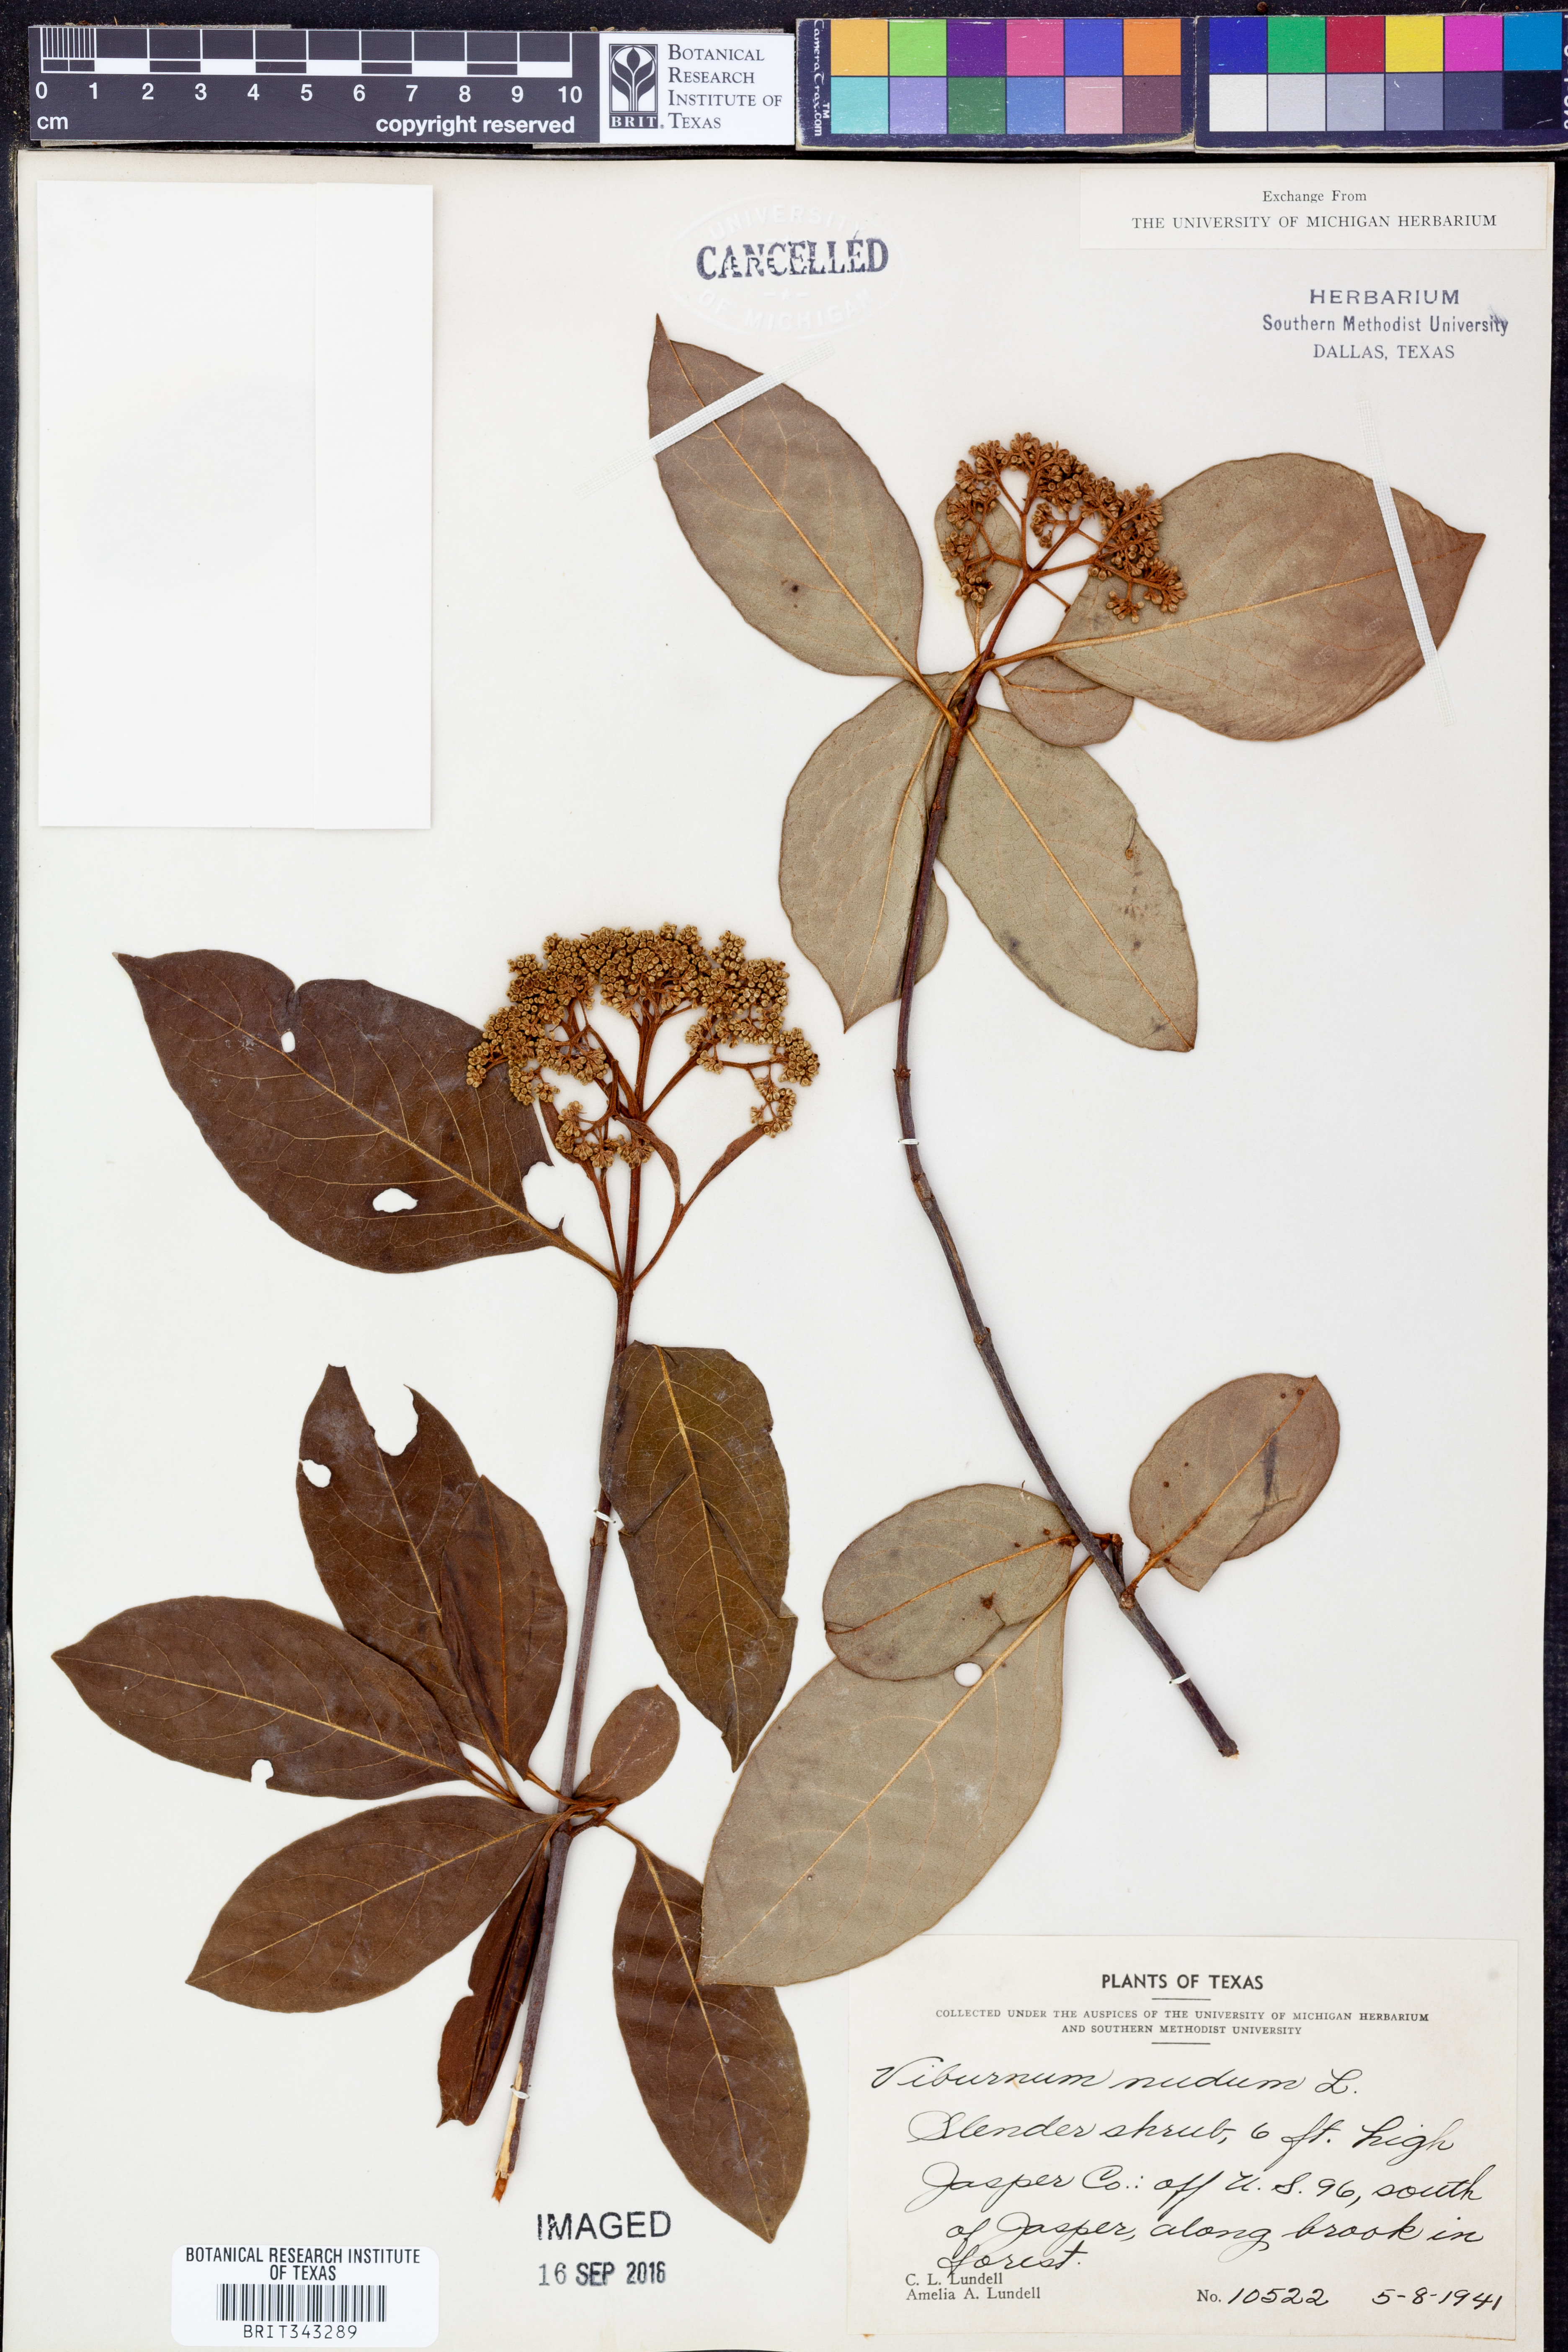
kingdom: Plantae
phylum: Tracheophyta
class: Magnoliopsida
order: Dipsacales
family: Viburnaceae
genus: Viburnum
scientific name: Viburnum nudum
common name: Possum haw
